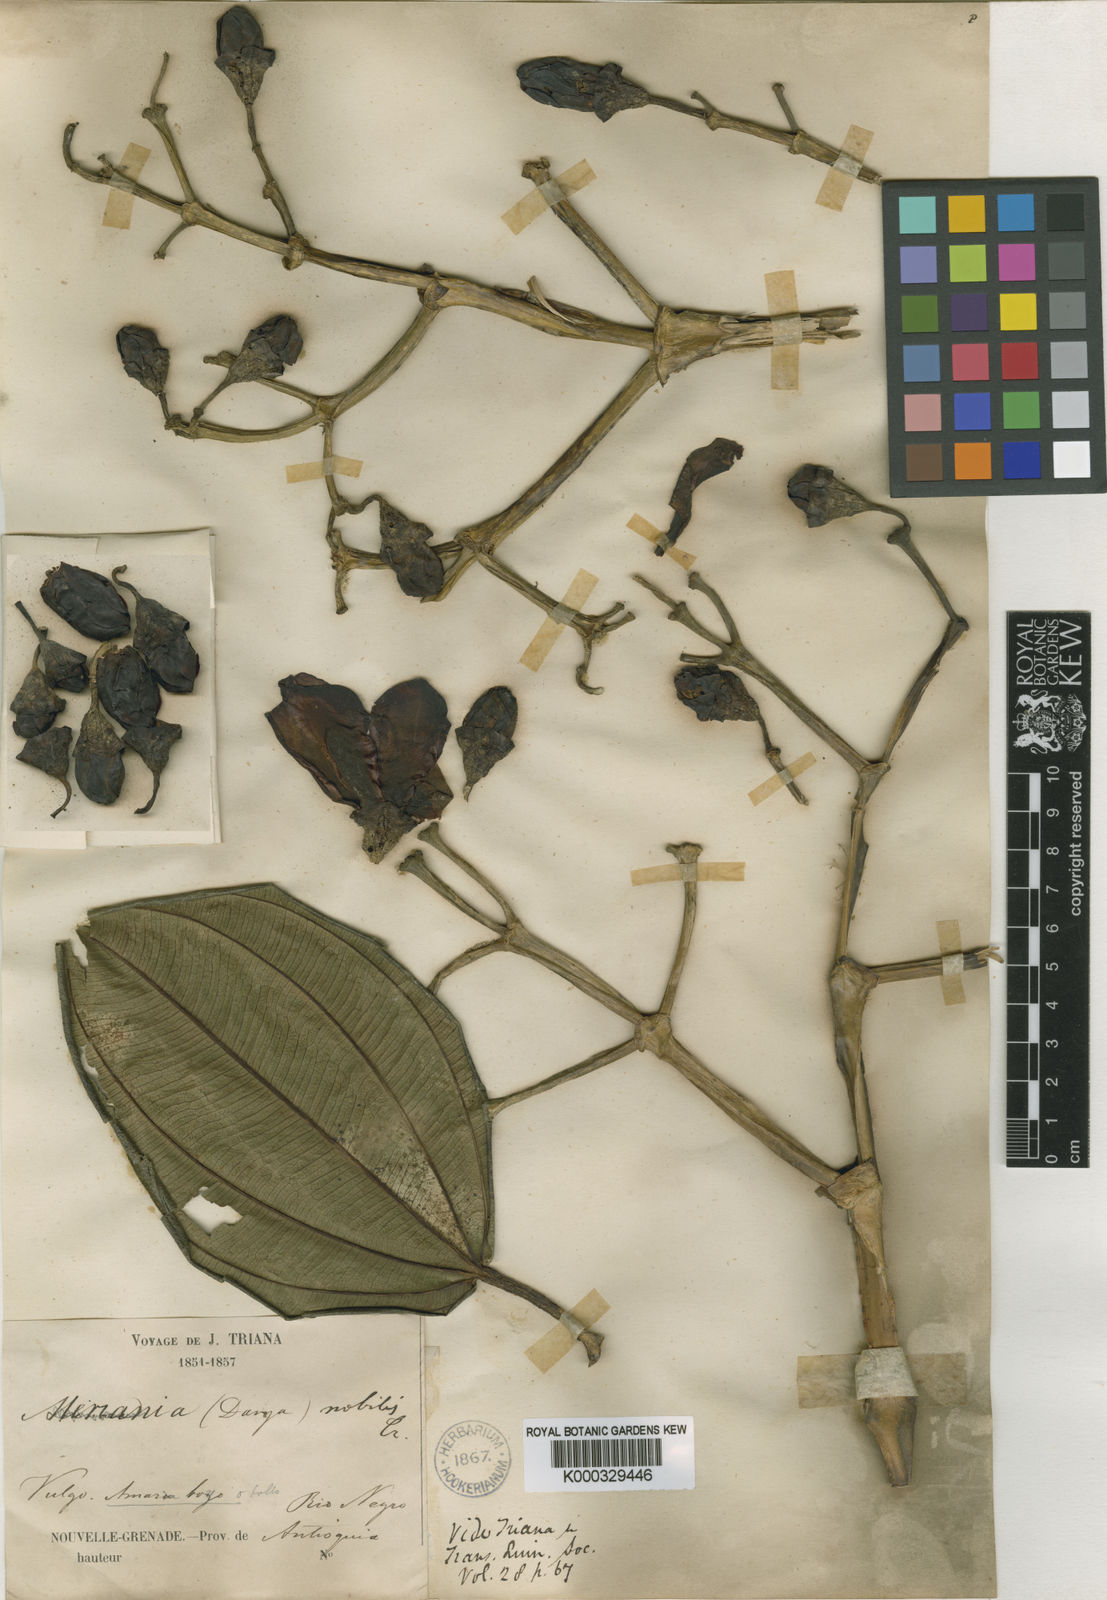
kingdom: Plantae
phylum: Tracheophyta
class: Magnoliopsida
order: Myrtales
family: Melastomataceae
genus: Meriania
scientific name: Meriania nobilis
